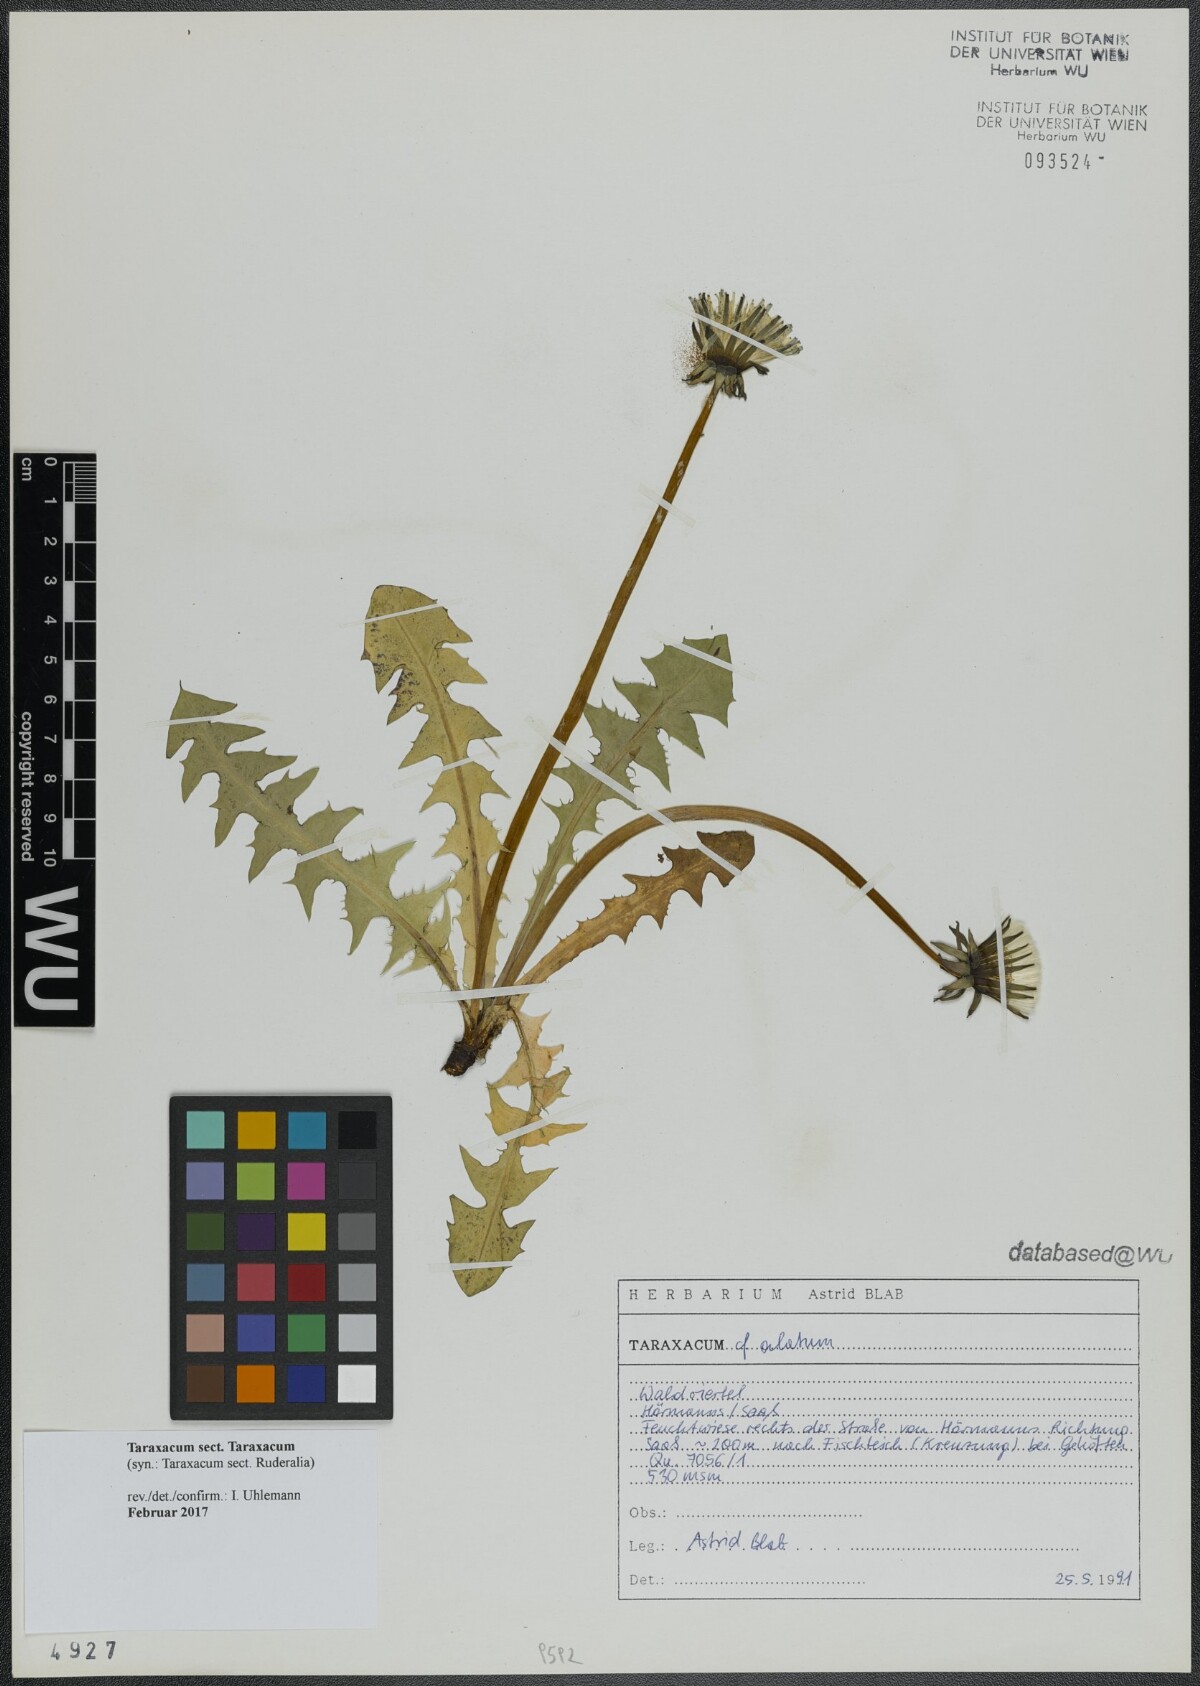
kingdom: Plantae
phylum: Tracheophyta
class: Magnoliopsida
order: Asterales
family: Asteraceae
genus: Taraxacum
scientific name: Taraxacum
